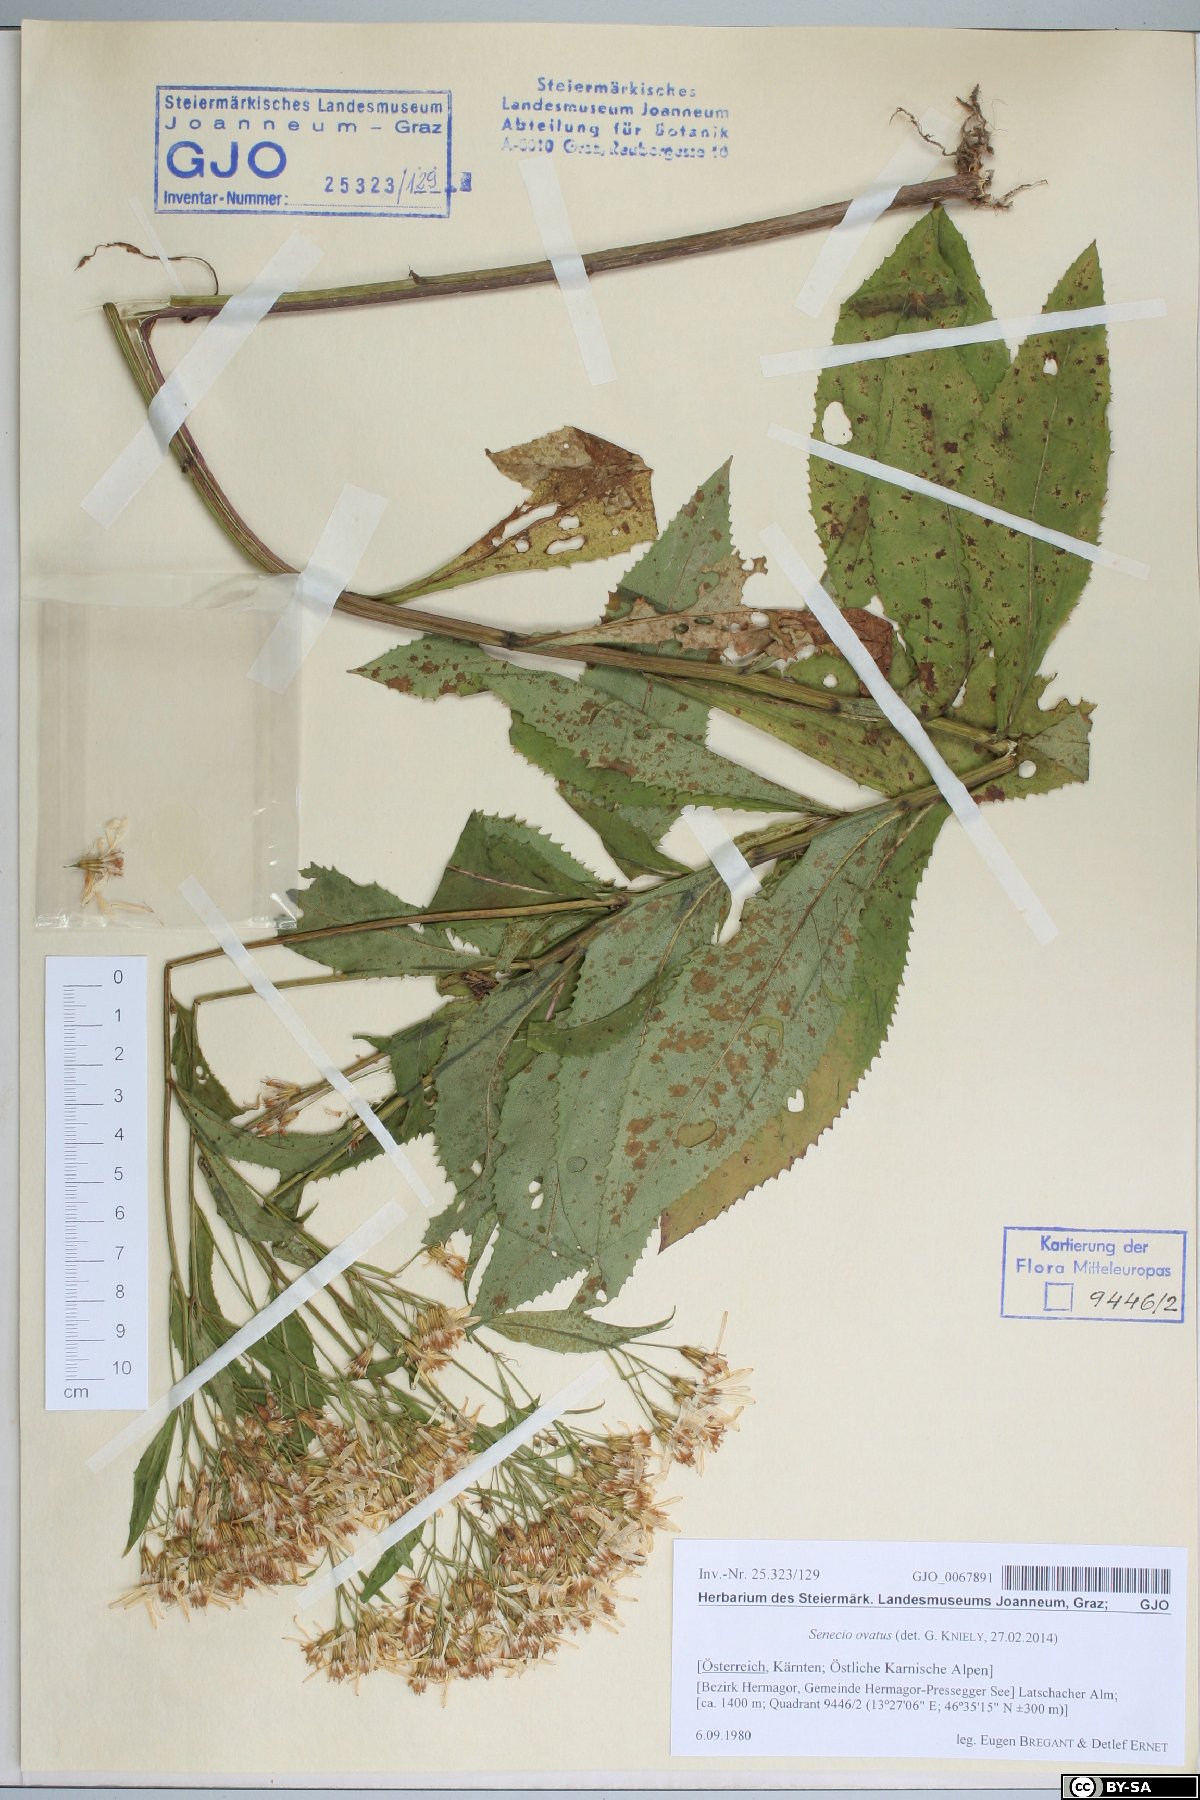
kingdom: Plantae
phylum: Tracheophyta
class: Magnoliopsida
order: Asterales
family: Asteraceae
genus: Senecio
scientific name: Senecio ovatus
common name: Wood ragwort
